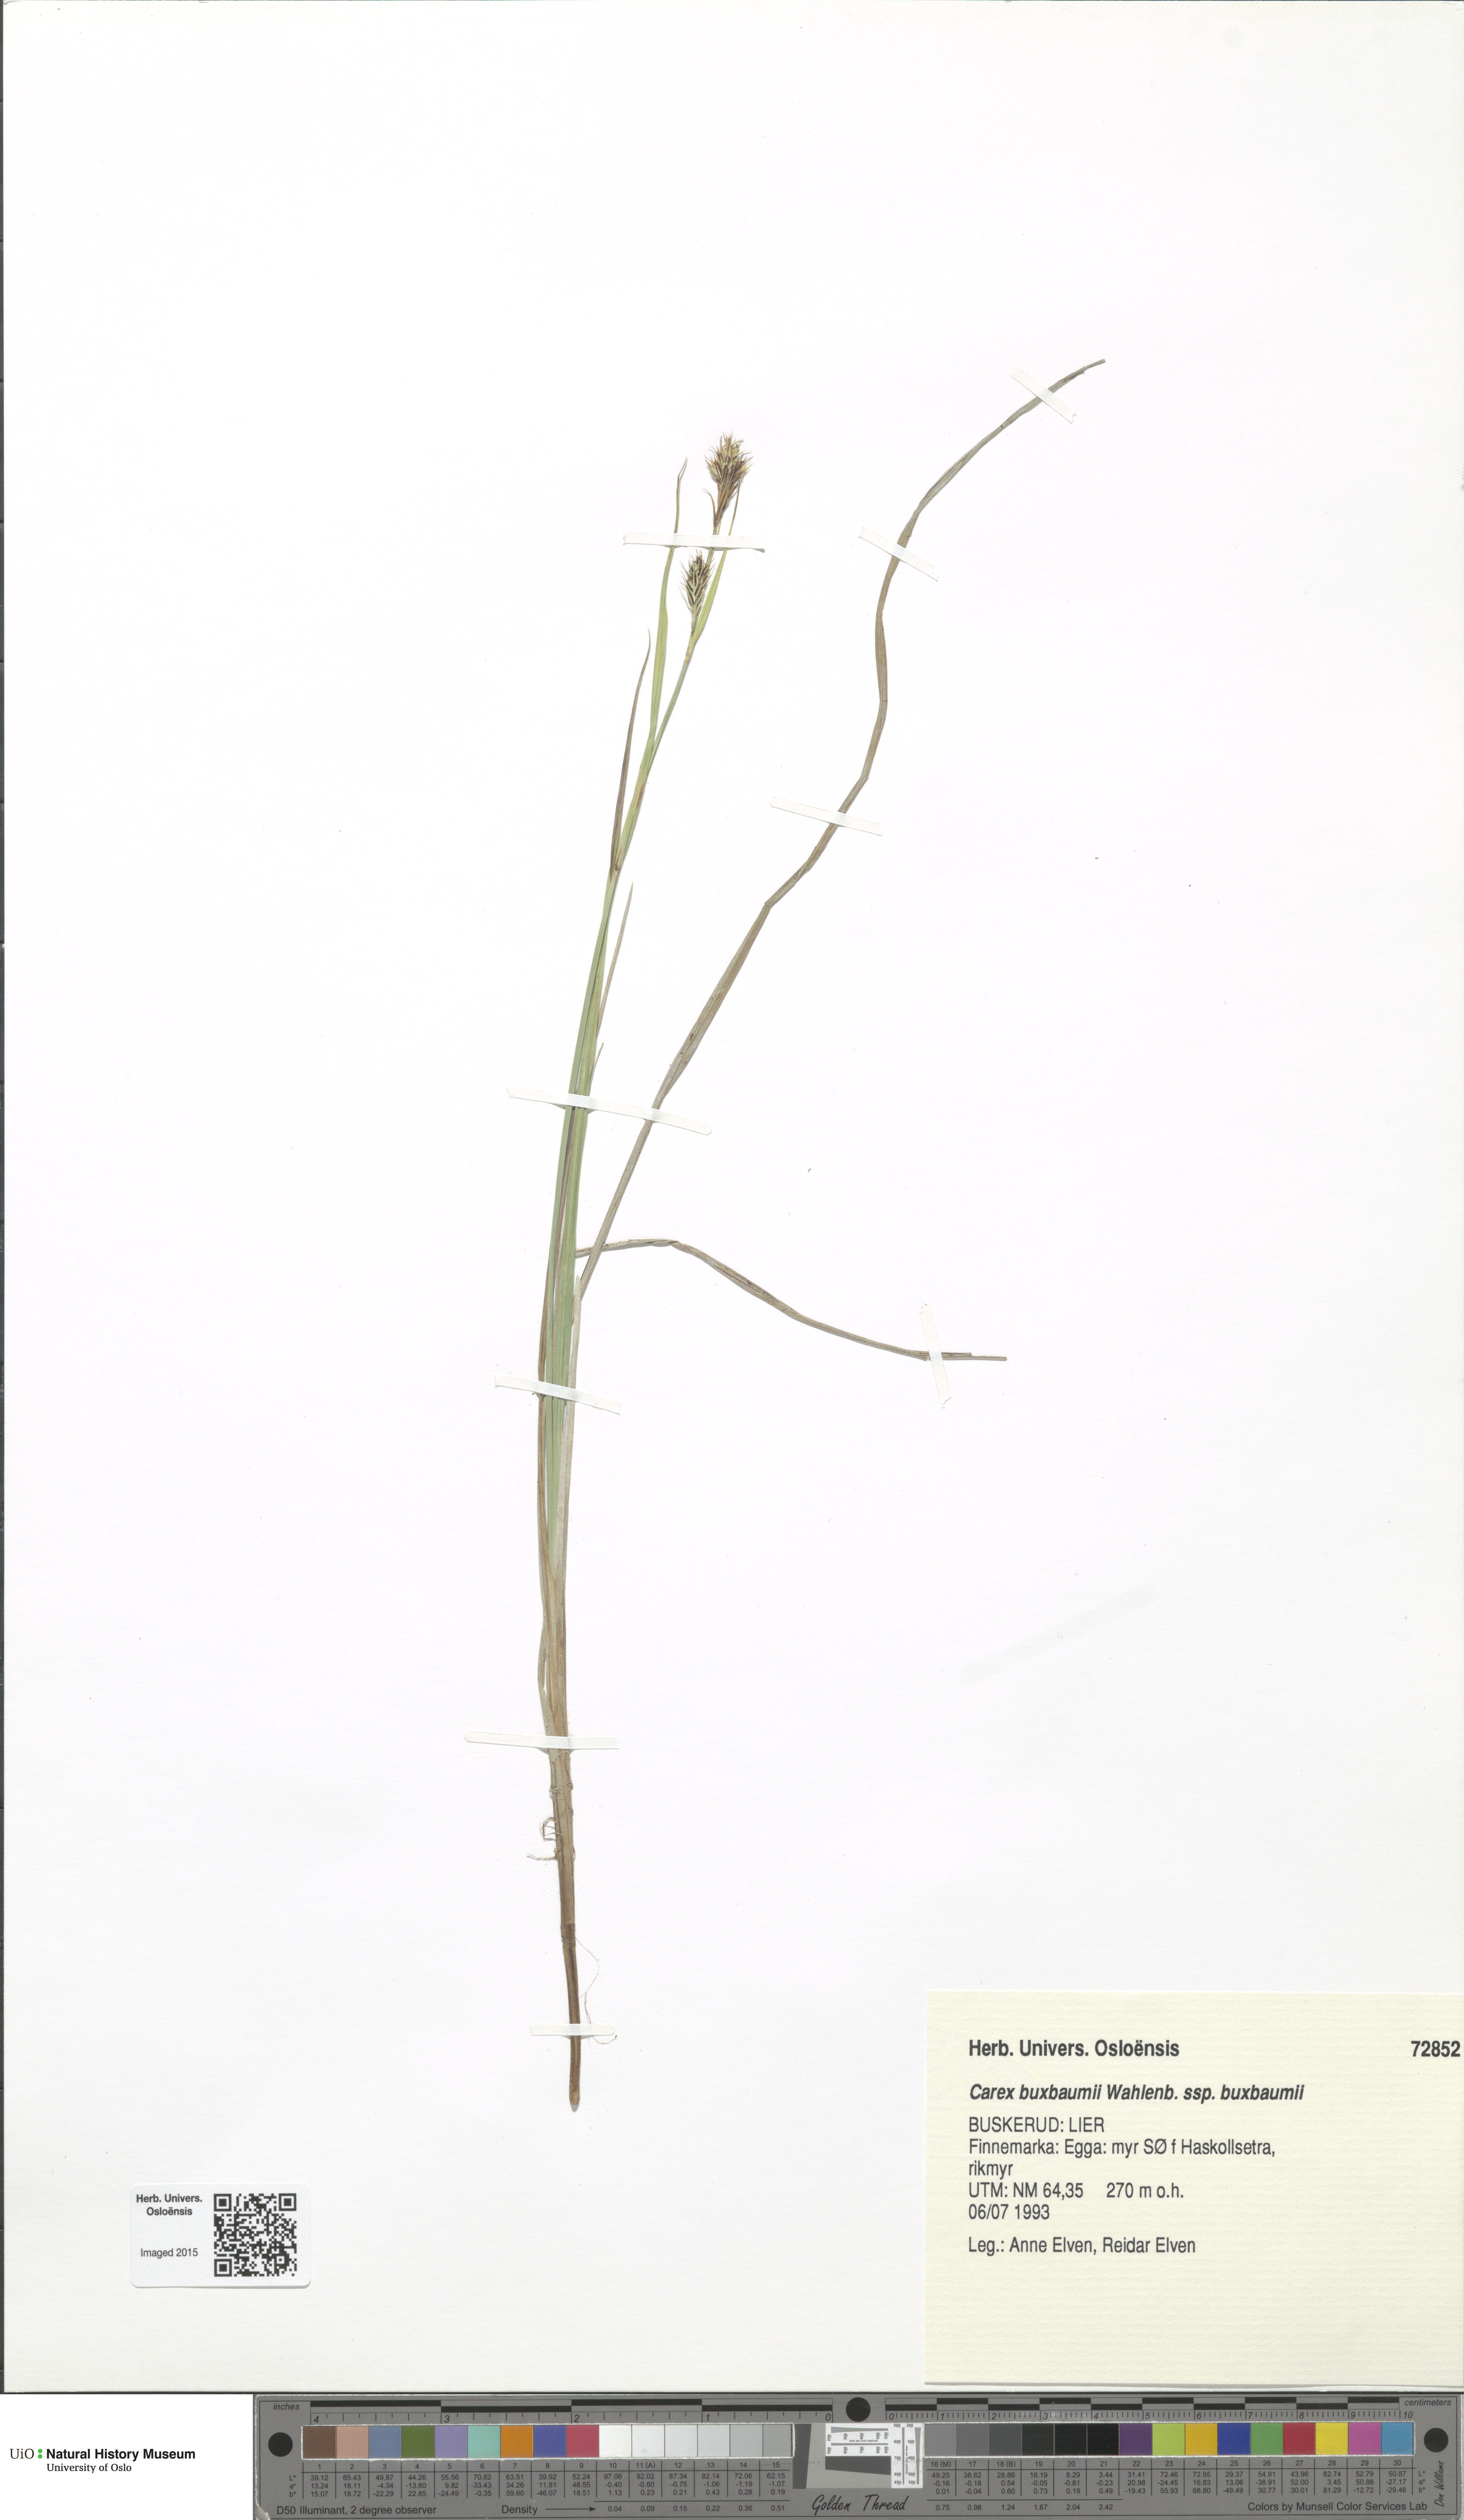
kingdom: Plantae
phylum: Tracheophyta
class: Liliopsida
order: Poales
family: Cyperaceae
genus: Carex
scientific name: Carex buxbaumii
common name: Club sedge
